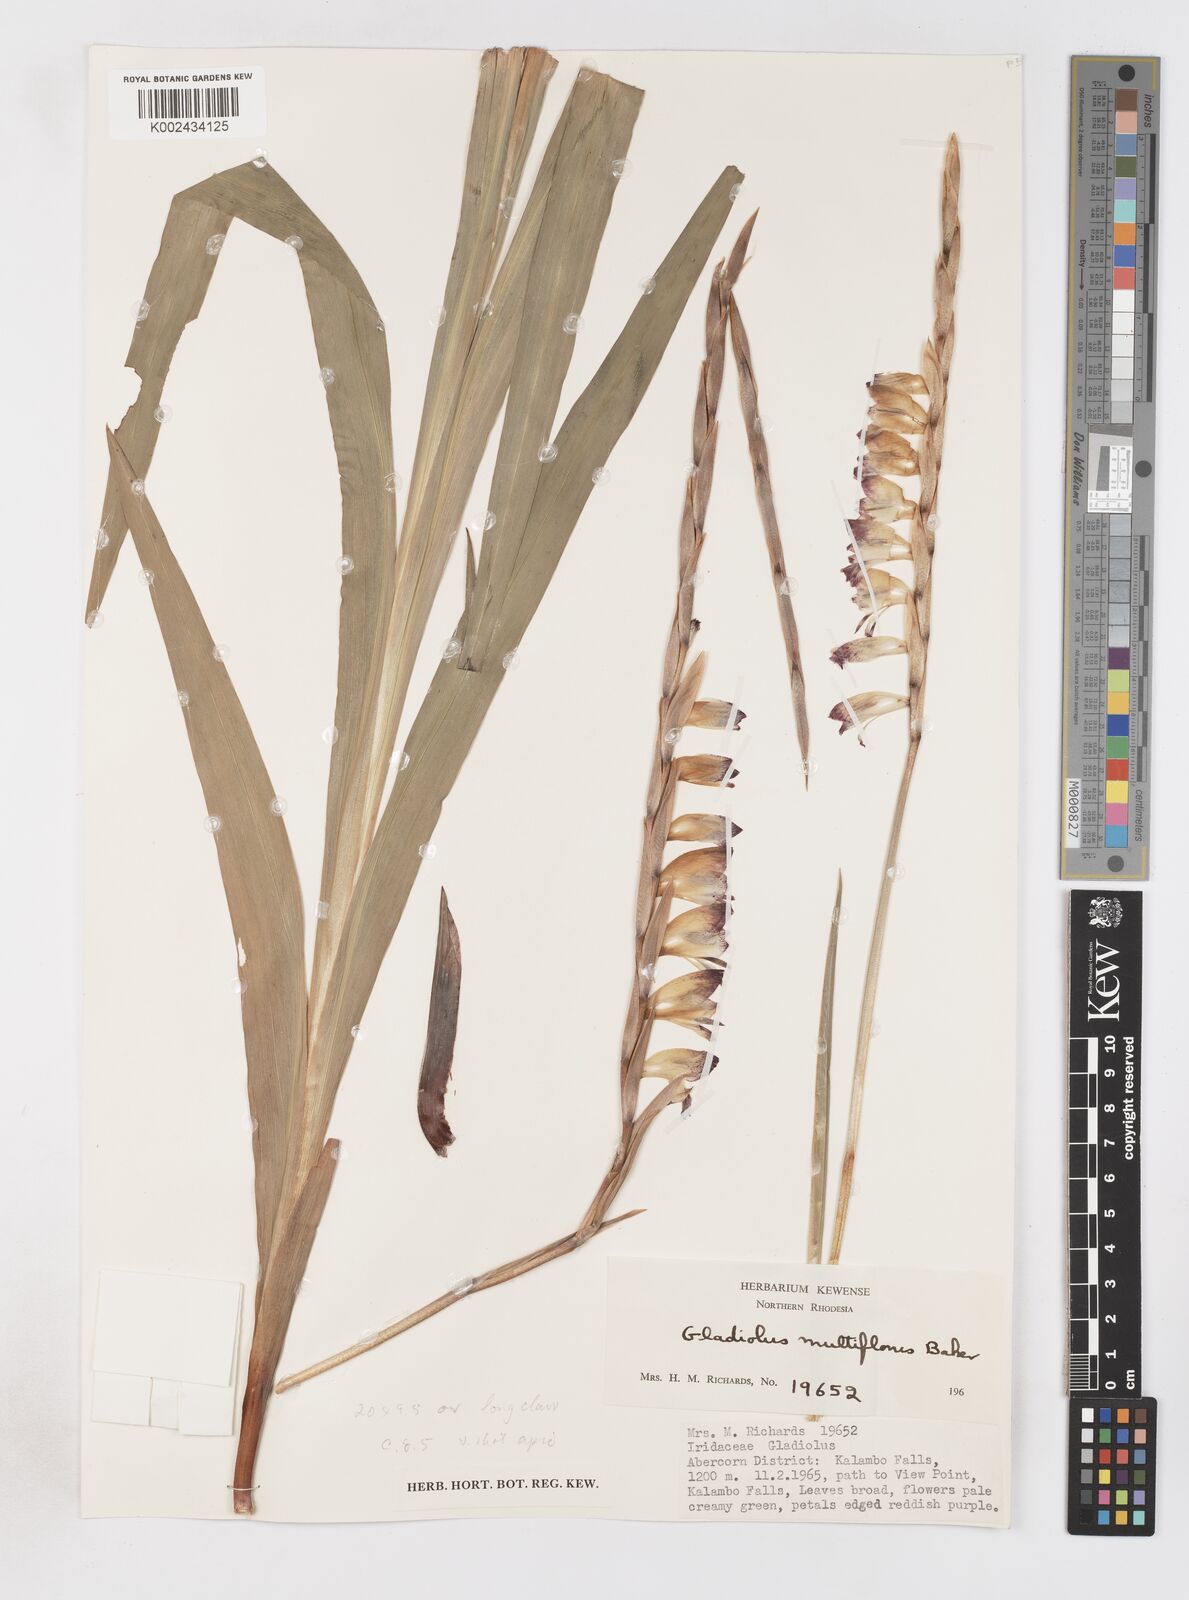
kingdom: Plantae
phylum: Tracheophyta
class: Liliopsida
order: Asparagales
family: Iridaceae
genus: Gladiolus
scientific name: Gladiolus gregarius
